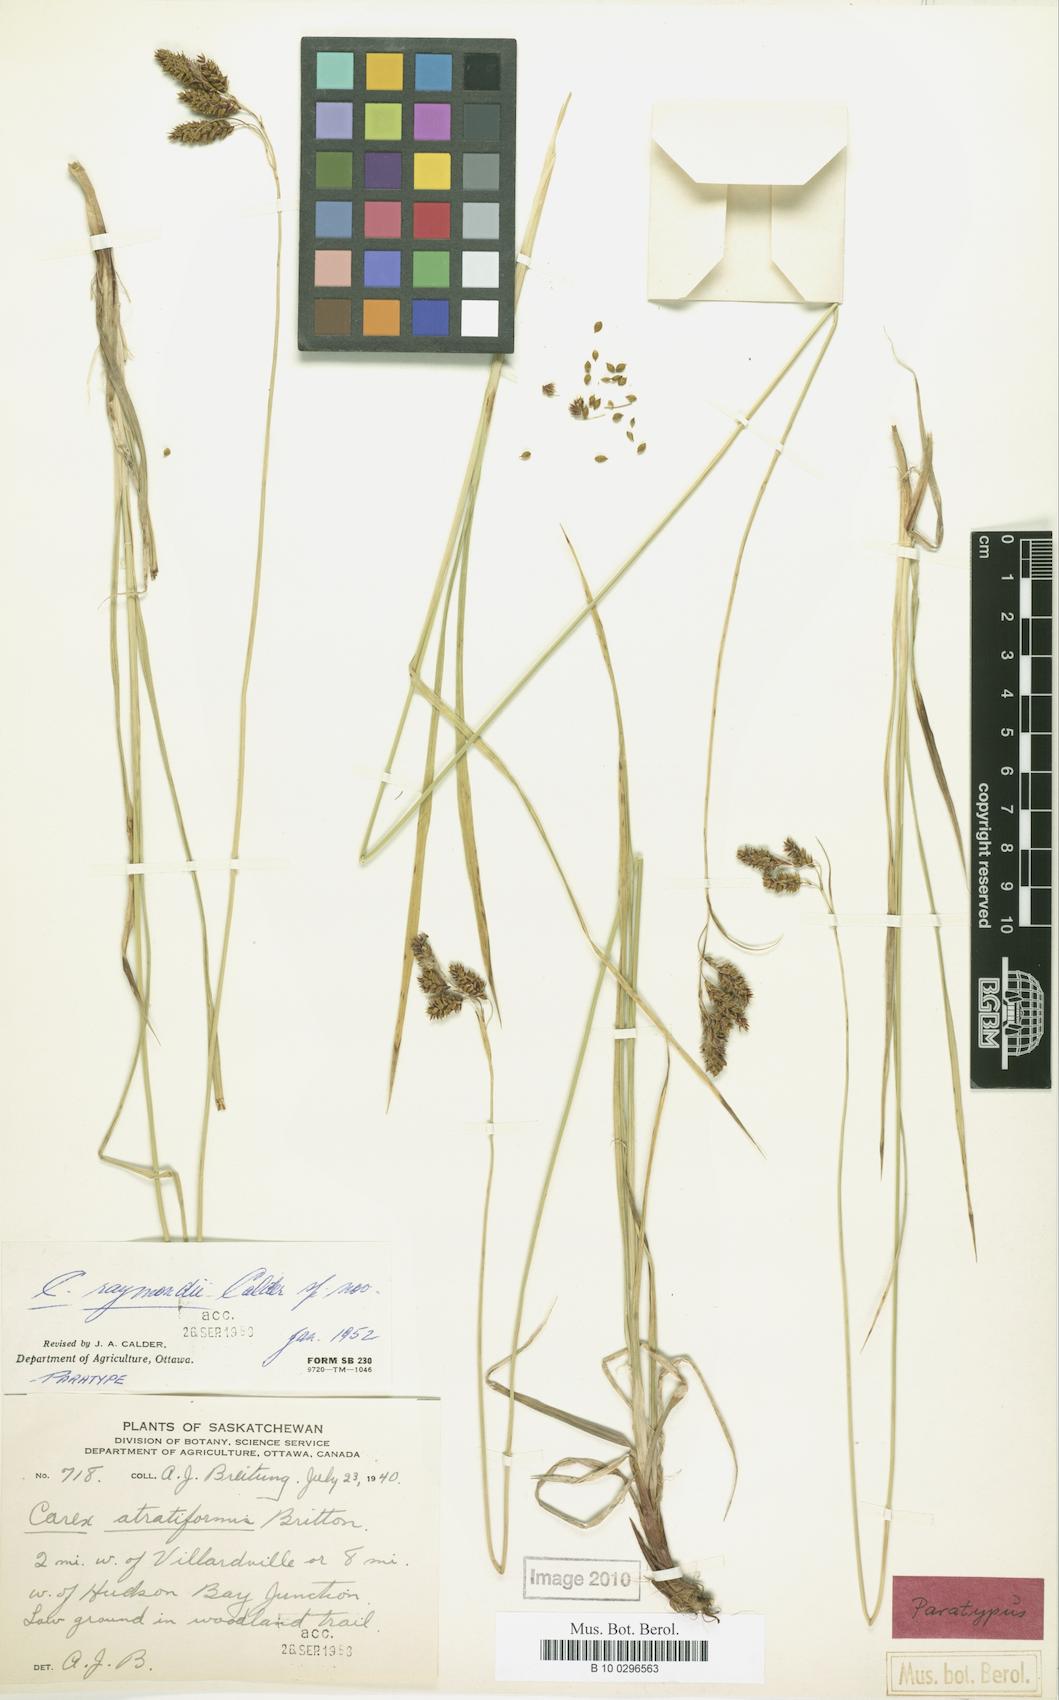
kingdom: Plantae
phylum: Tracheophyta
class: Liliopsida
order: Poales
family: Cyperaceae
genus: Carex
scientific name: Carex atratiformis
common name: Black sedge
